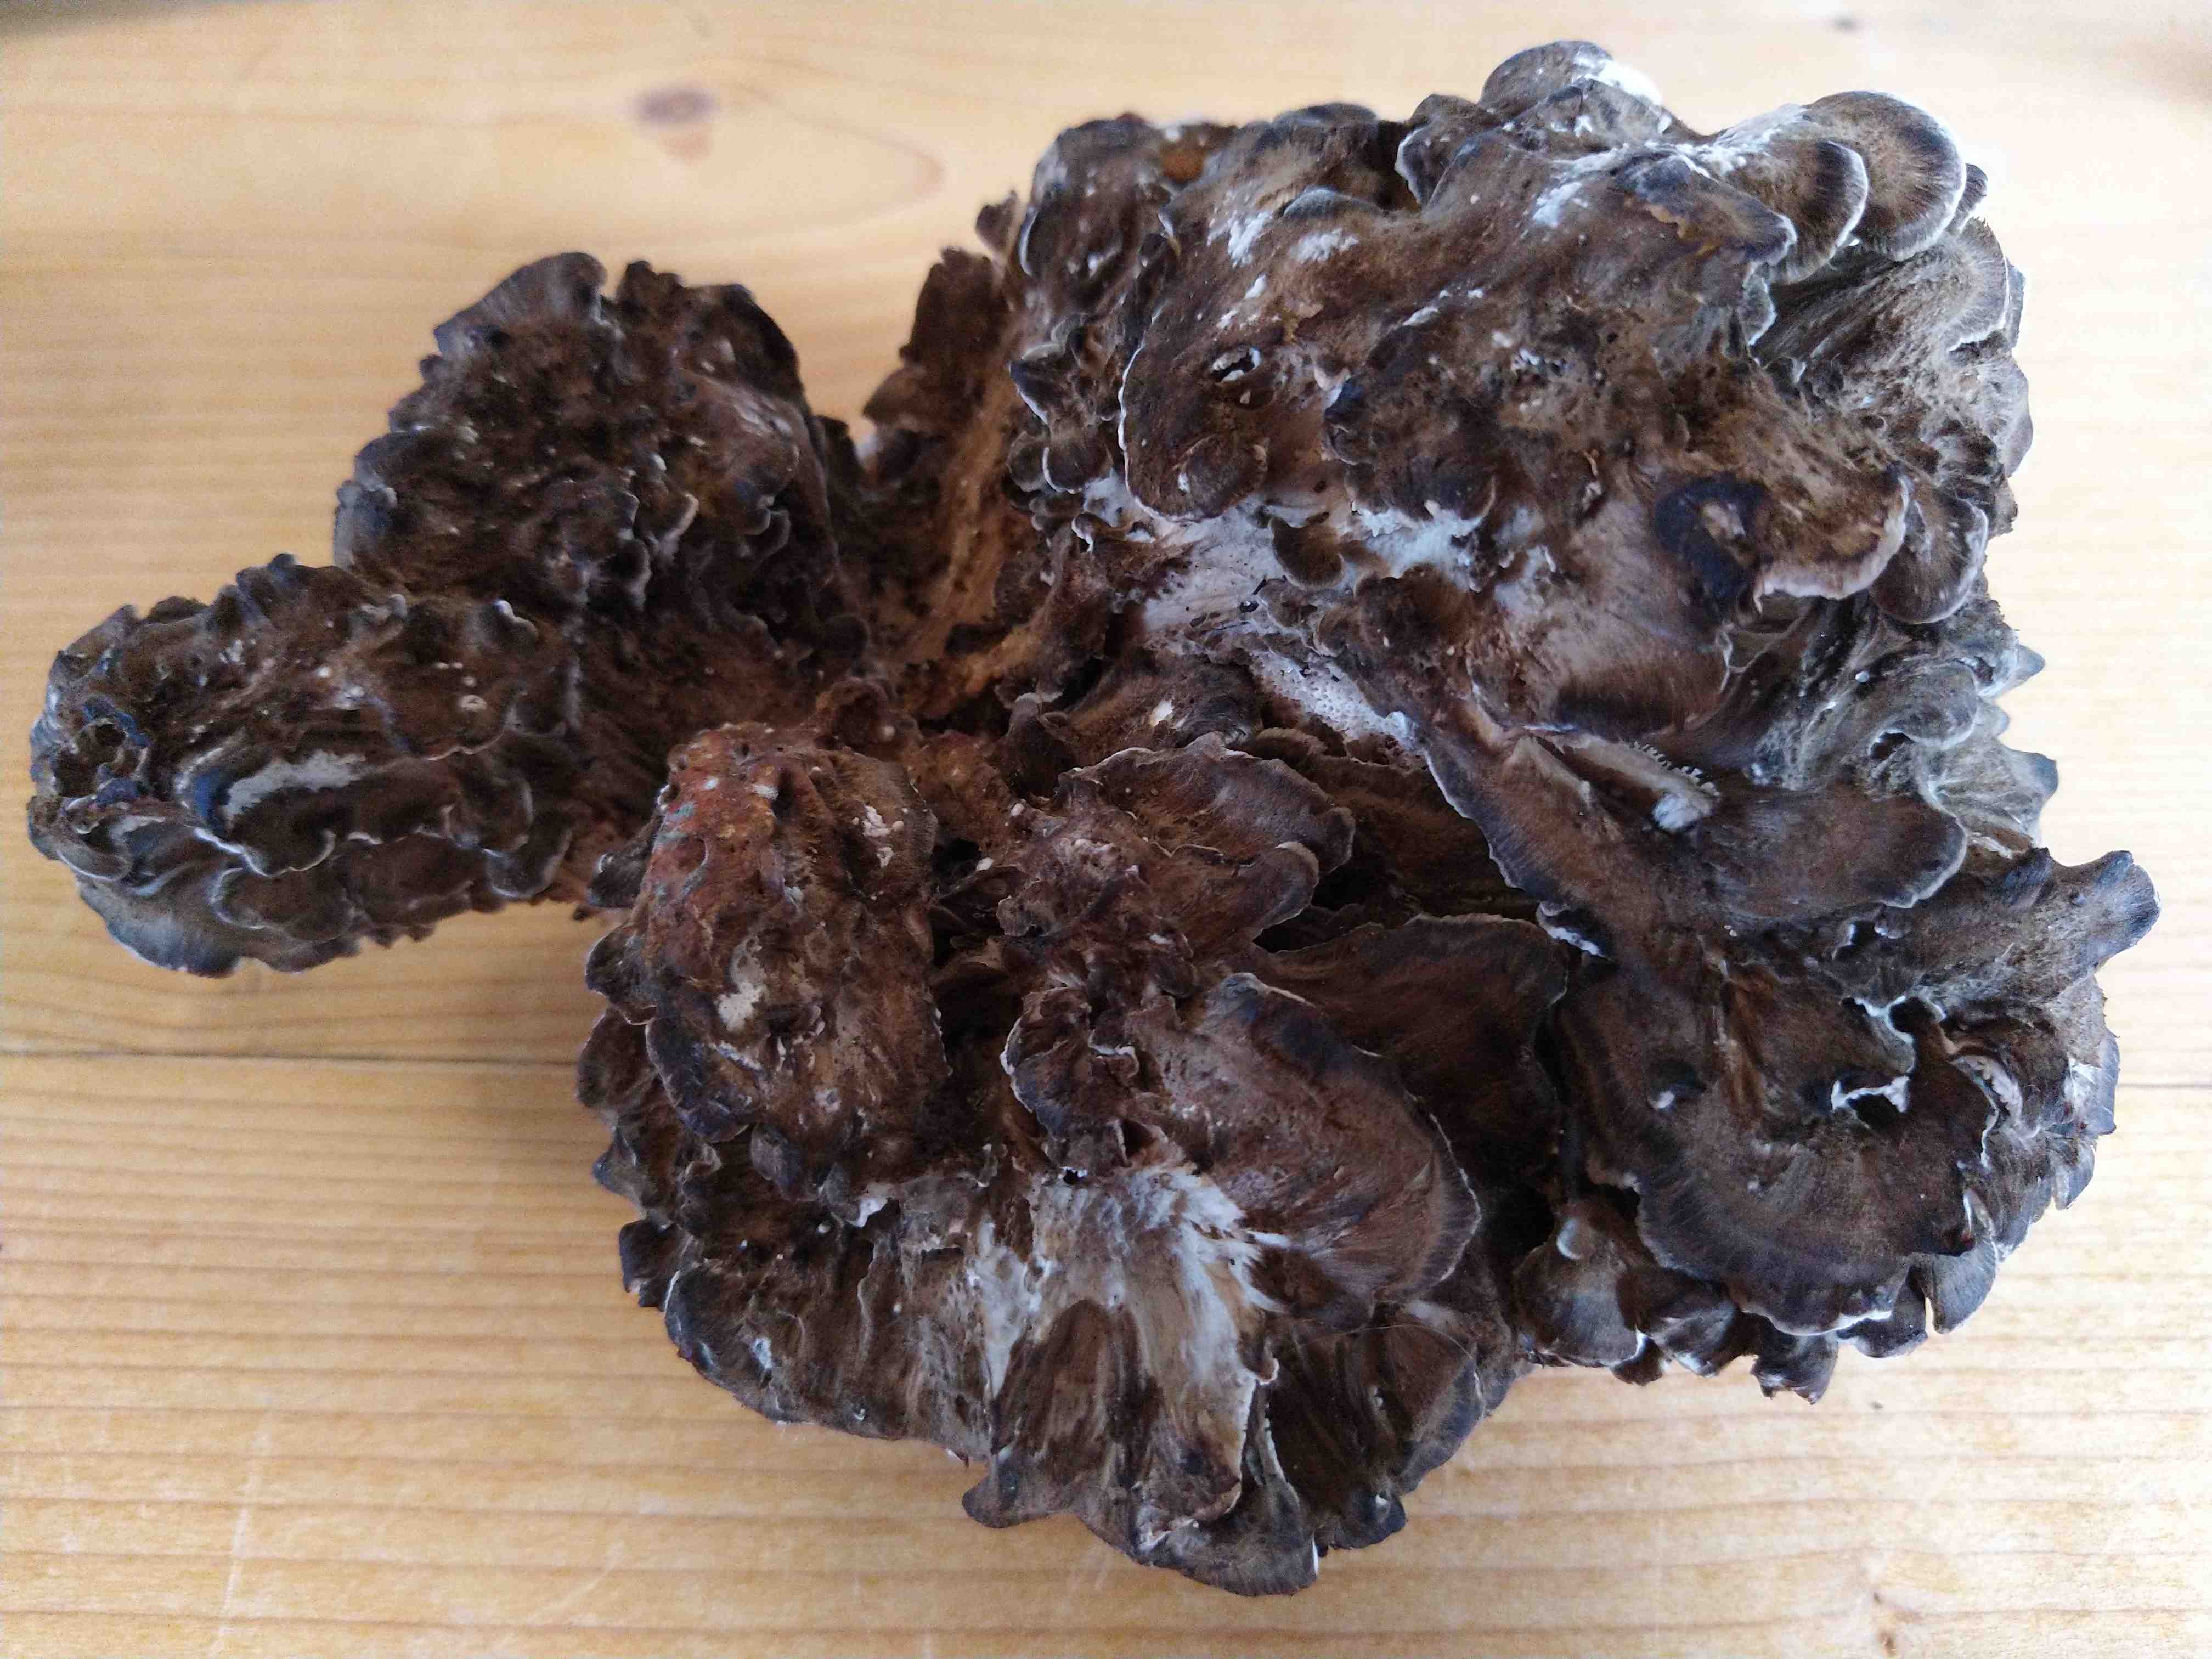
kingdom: Fungi
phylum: Basidiomycota
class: Agaricomycetes
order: Polyporales
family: Grifolaceae
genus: Grifola
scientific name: Grifola frondosa
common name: tueporesvamp
